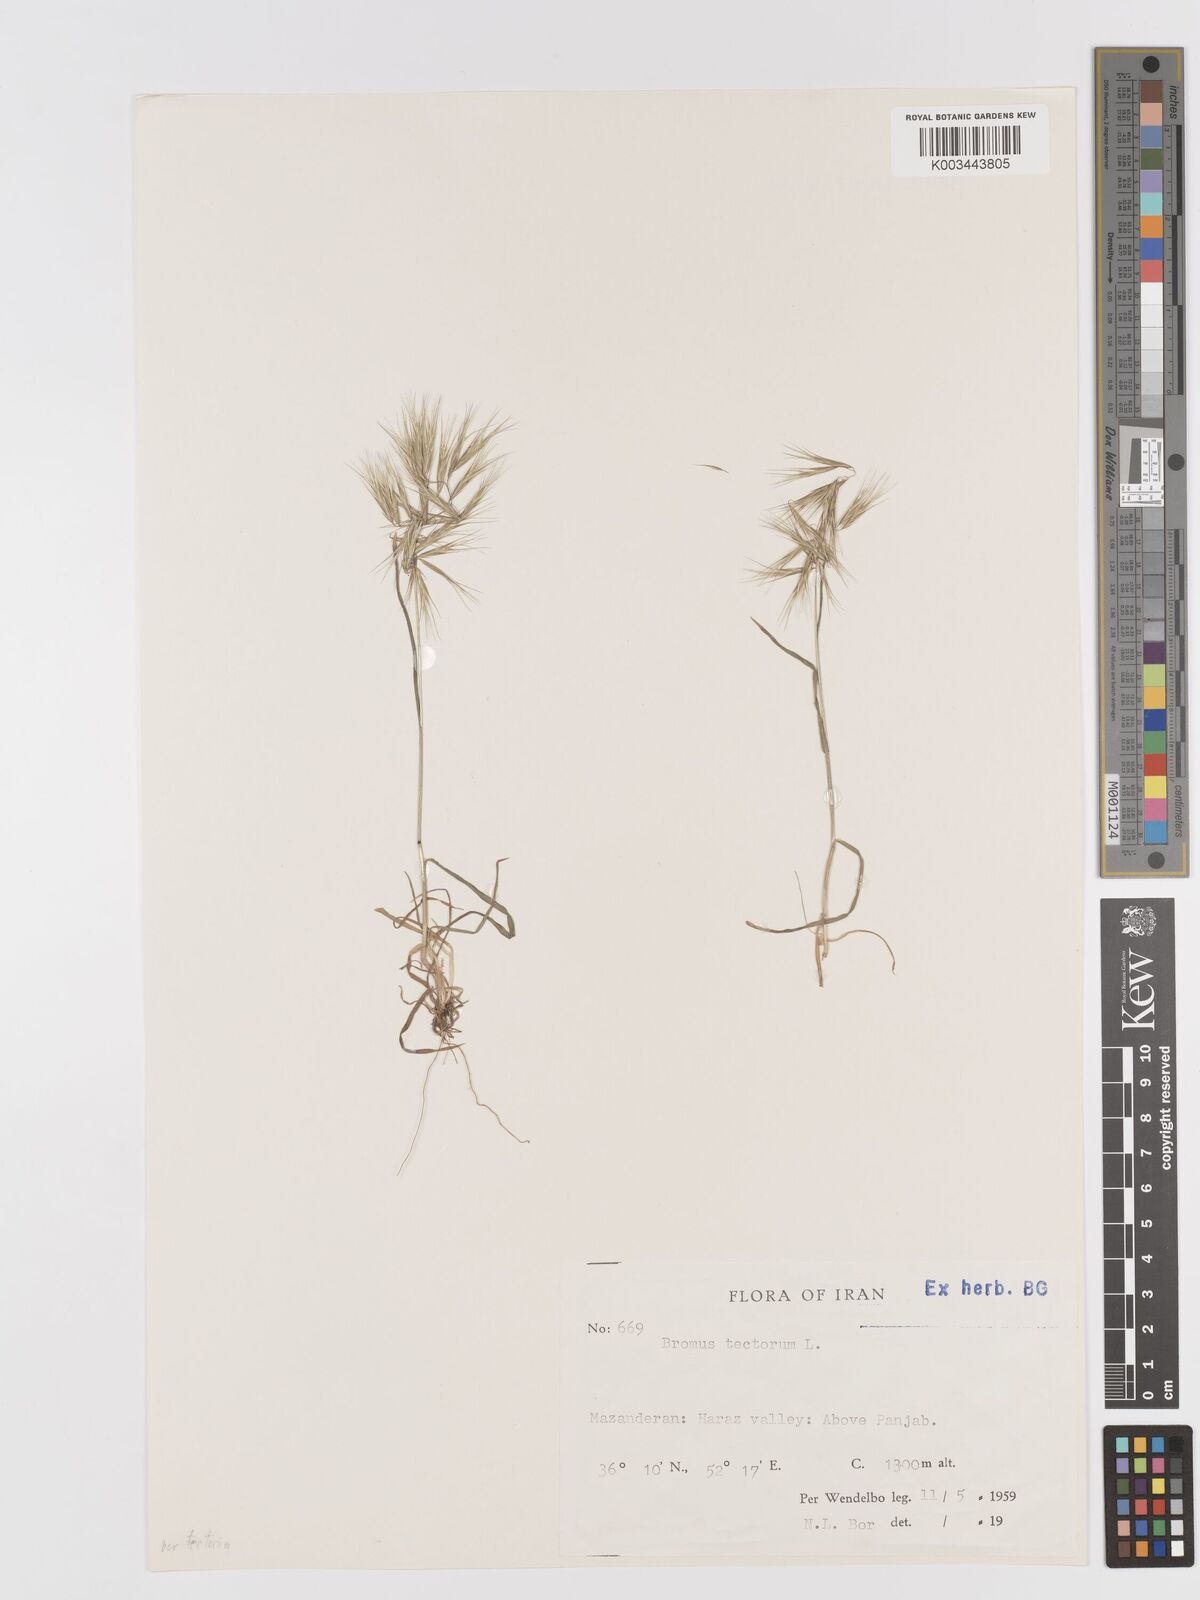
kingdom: Plantae
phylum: Tracheophyta
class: Liliopsida
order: Poales
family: Poaceae
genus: Bromus
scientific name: Bromus tectorum
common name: Cheatgrass
